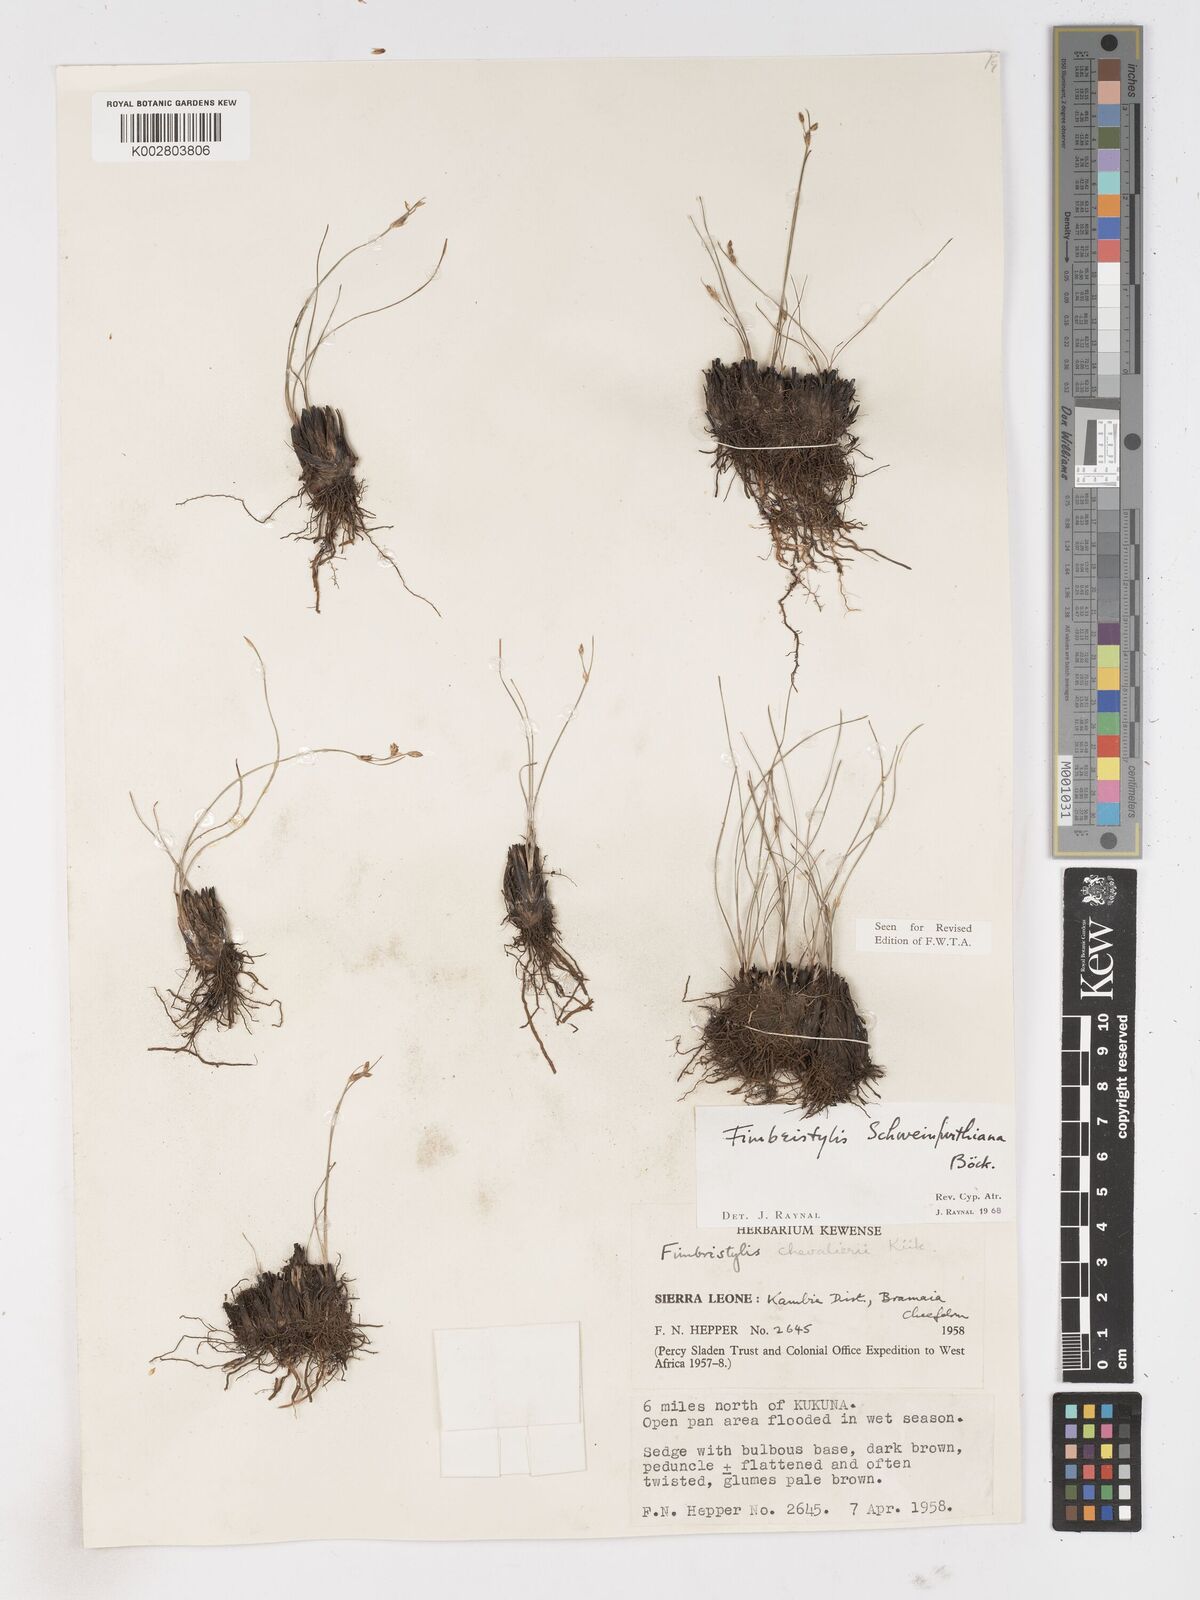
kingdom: Plantae
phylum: Tracheophyta
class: Liliopsida
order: Poales
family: Cyperaceae
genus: Fimbristylis
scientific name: Fimbristylis schweinfurthiana
